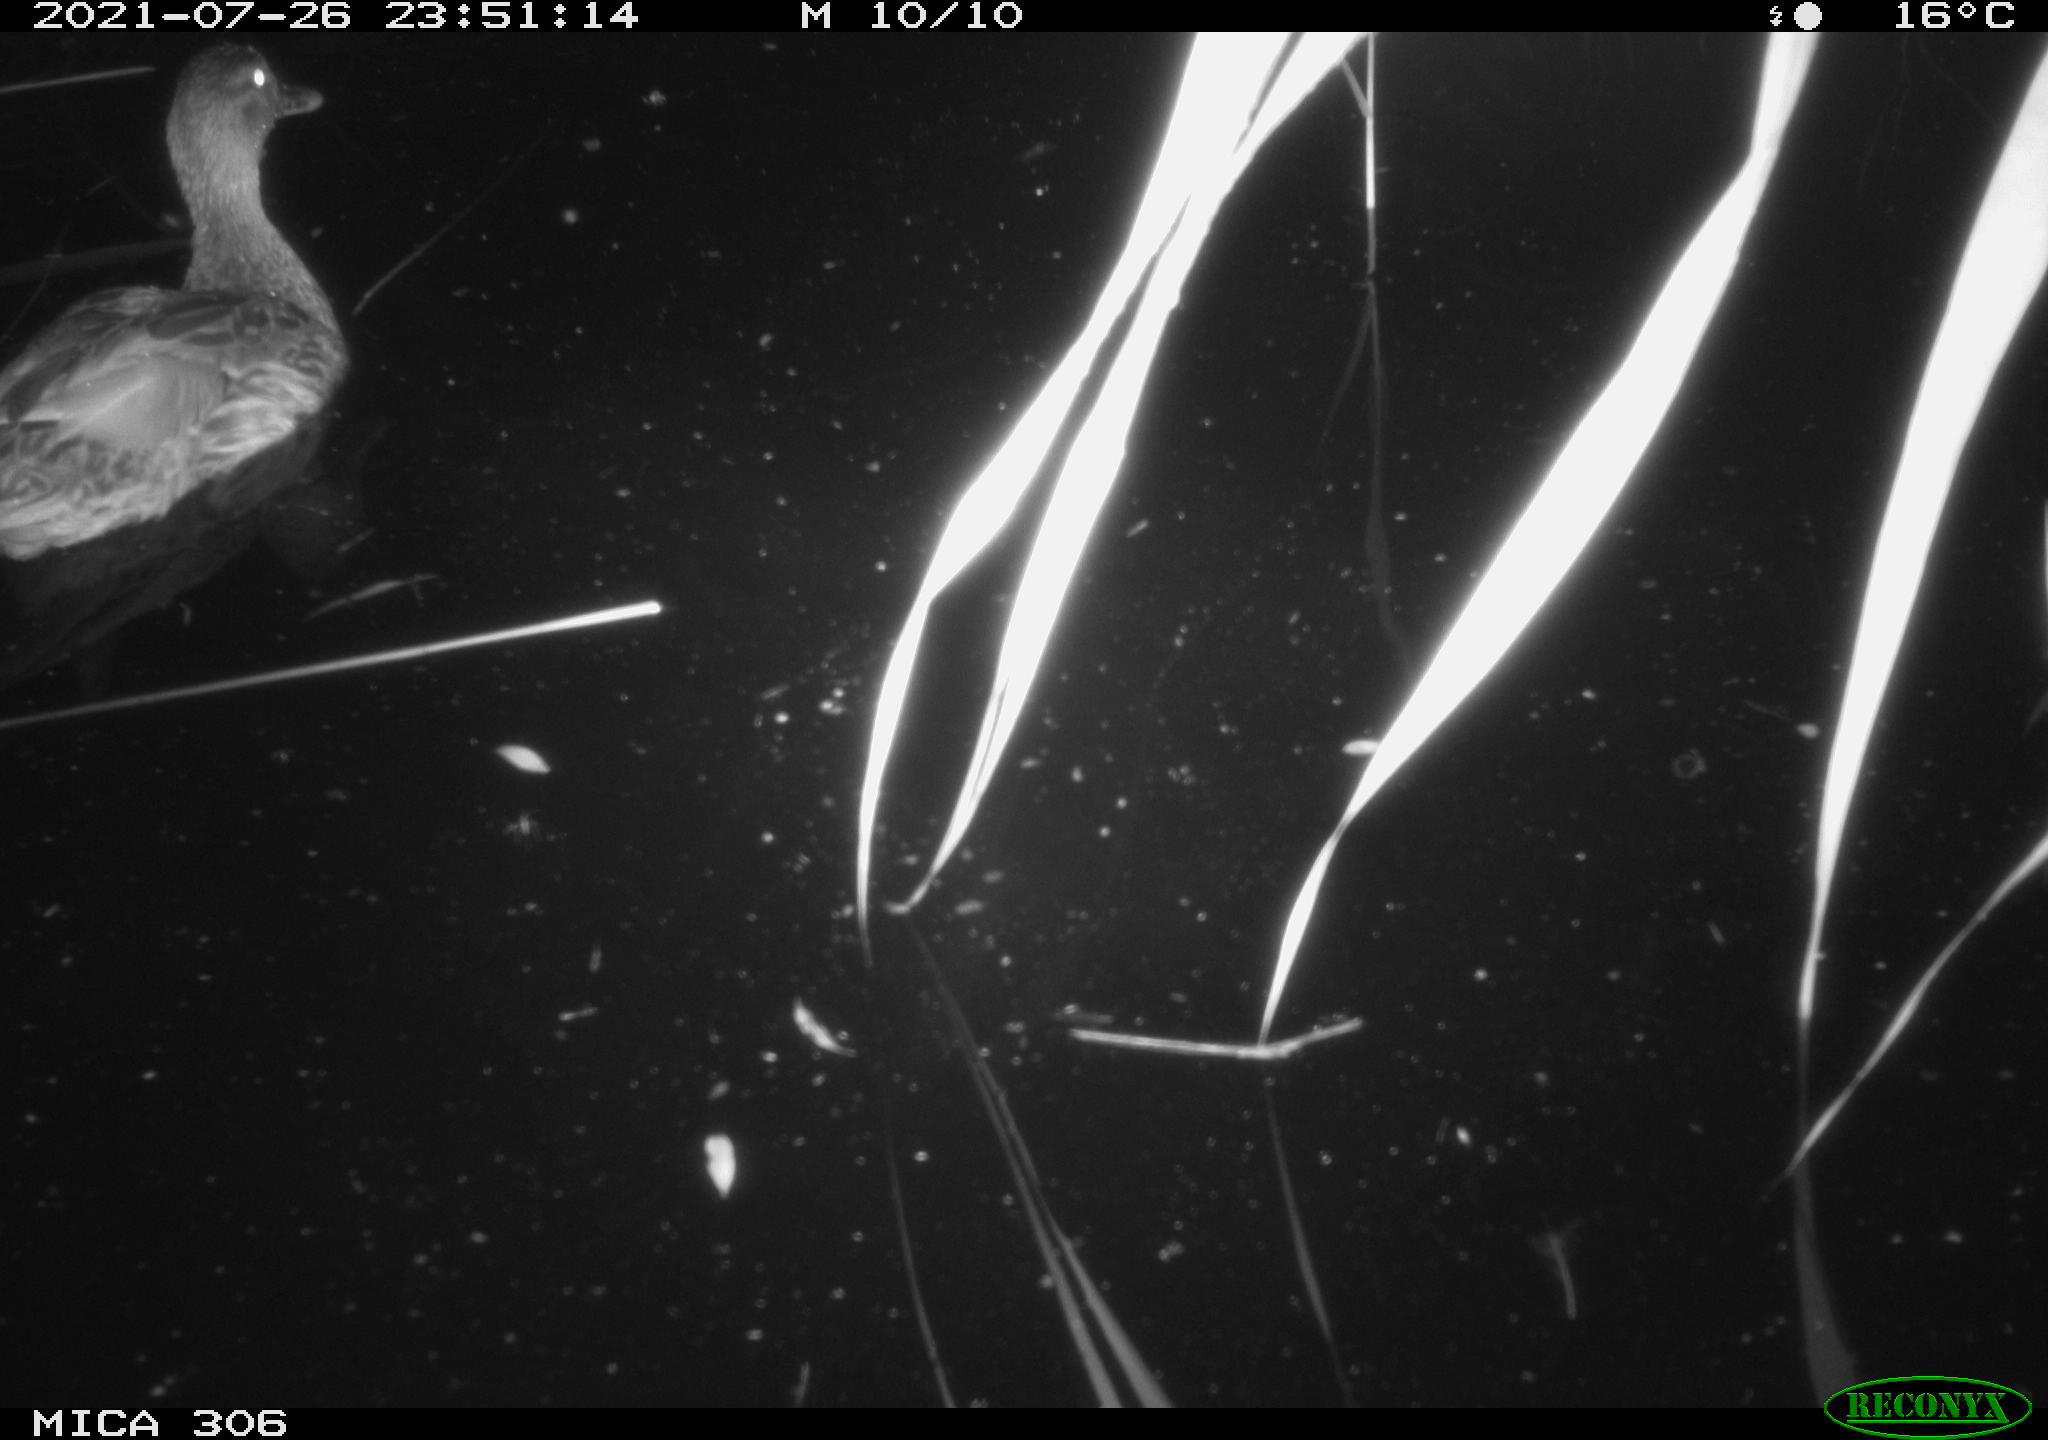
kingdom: Animalia
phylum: Chordata
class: Aves
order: Anseriformes
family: Anatidae
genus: Anas
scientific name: Anas platyrhynchos
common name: Mallard
